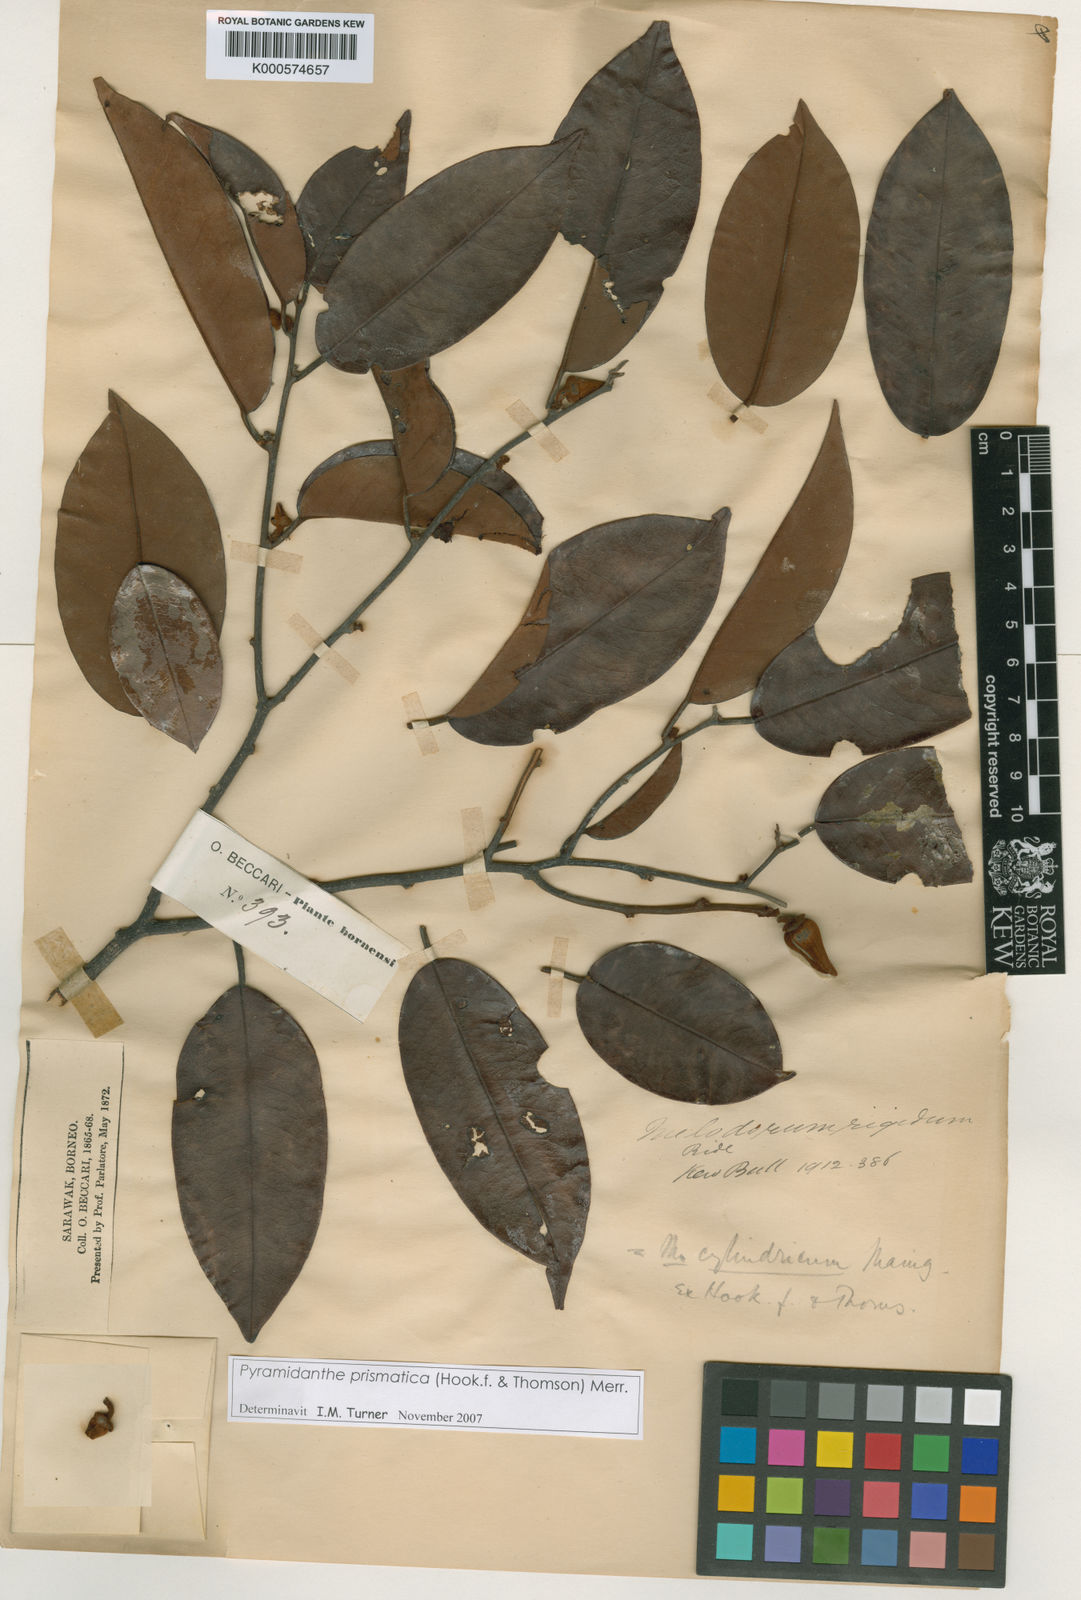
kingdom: Plantae
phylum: Tracheophyta
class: Magnoliopsida
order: Magnoliales
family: Annonaceae
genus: Pyramidanthe
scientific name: Pyramidanthe prismatica
